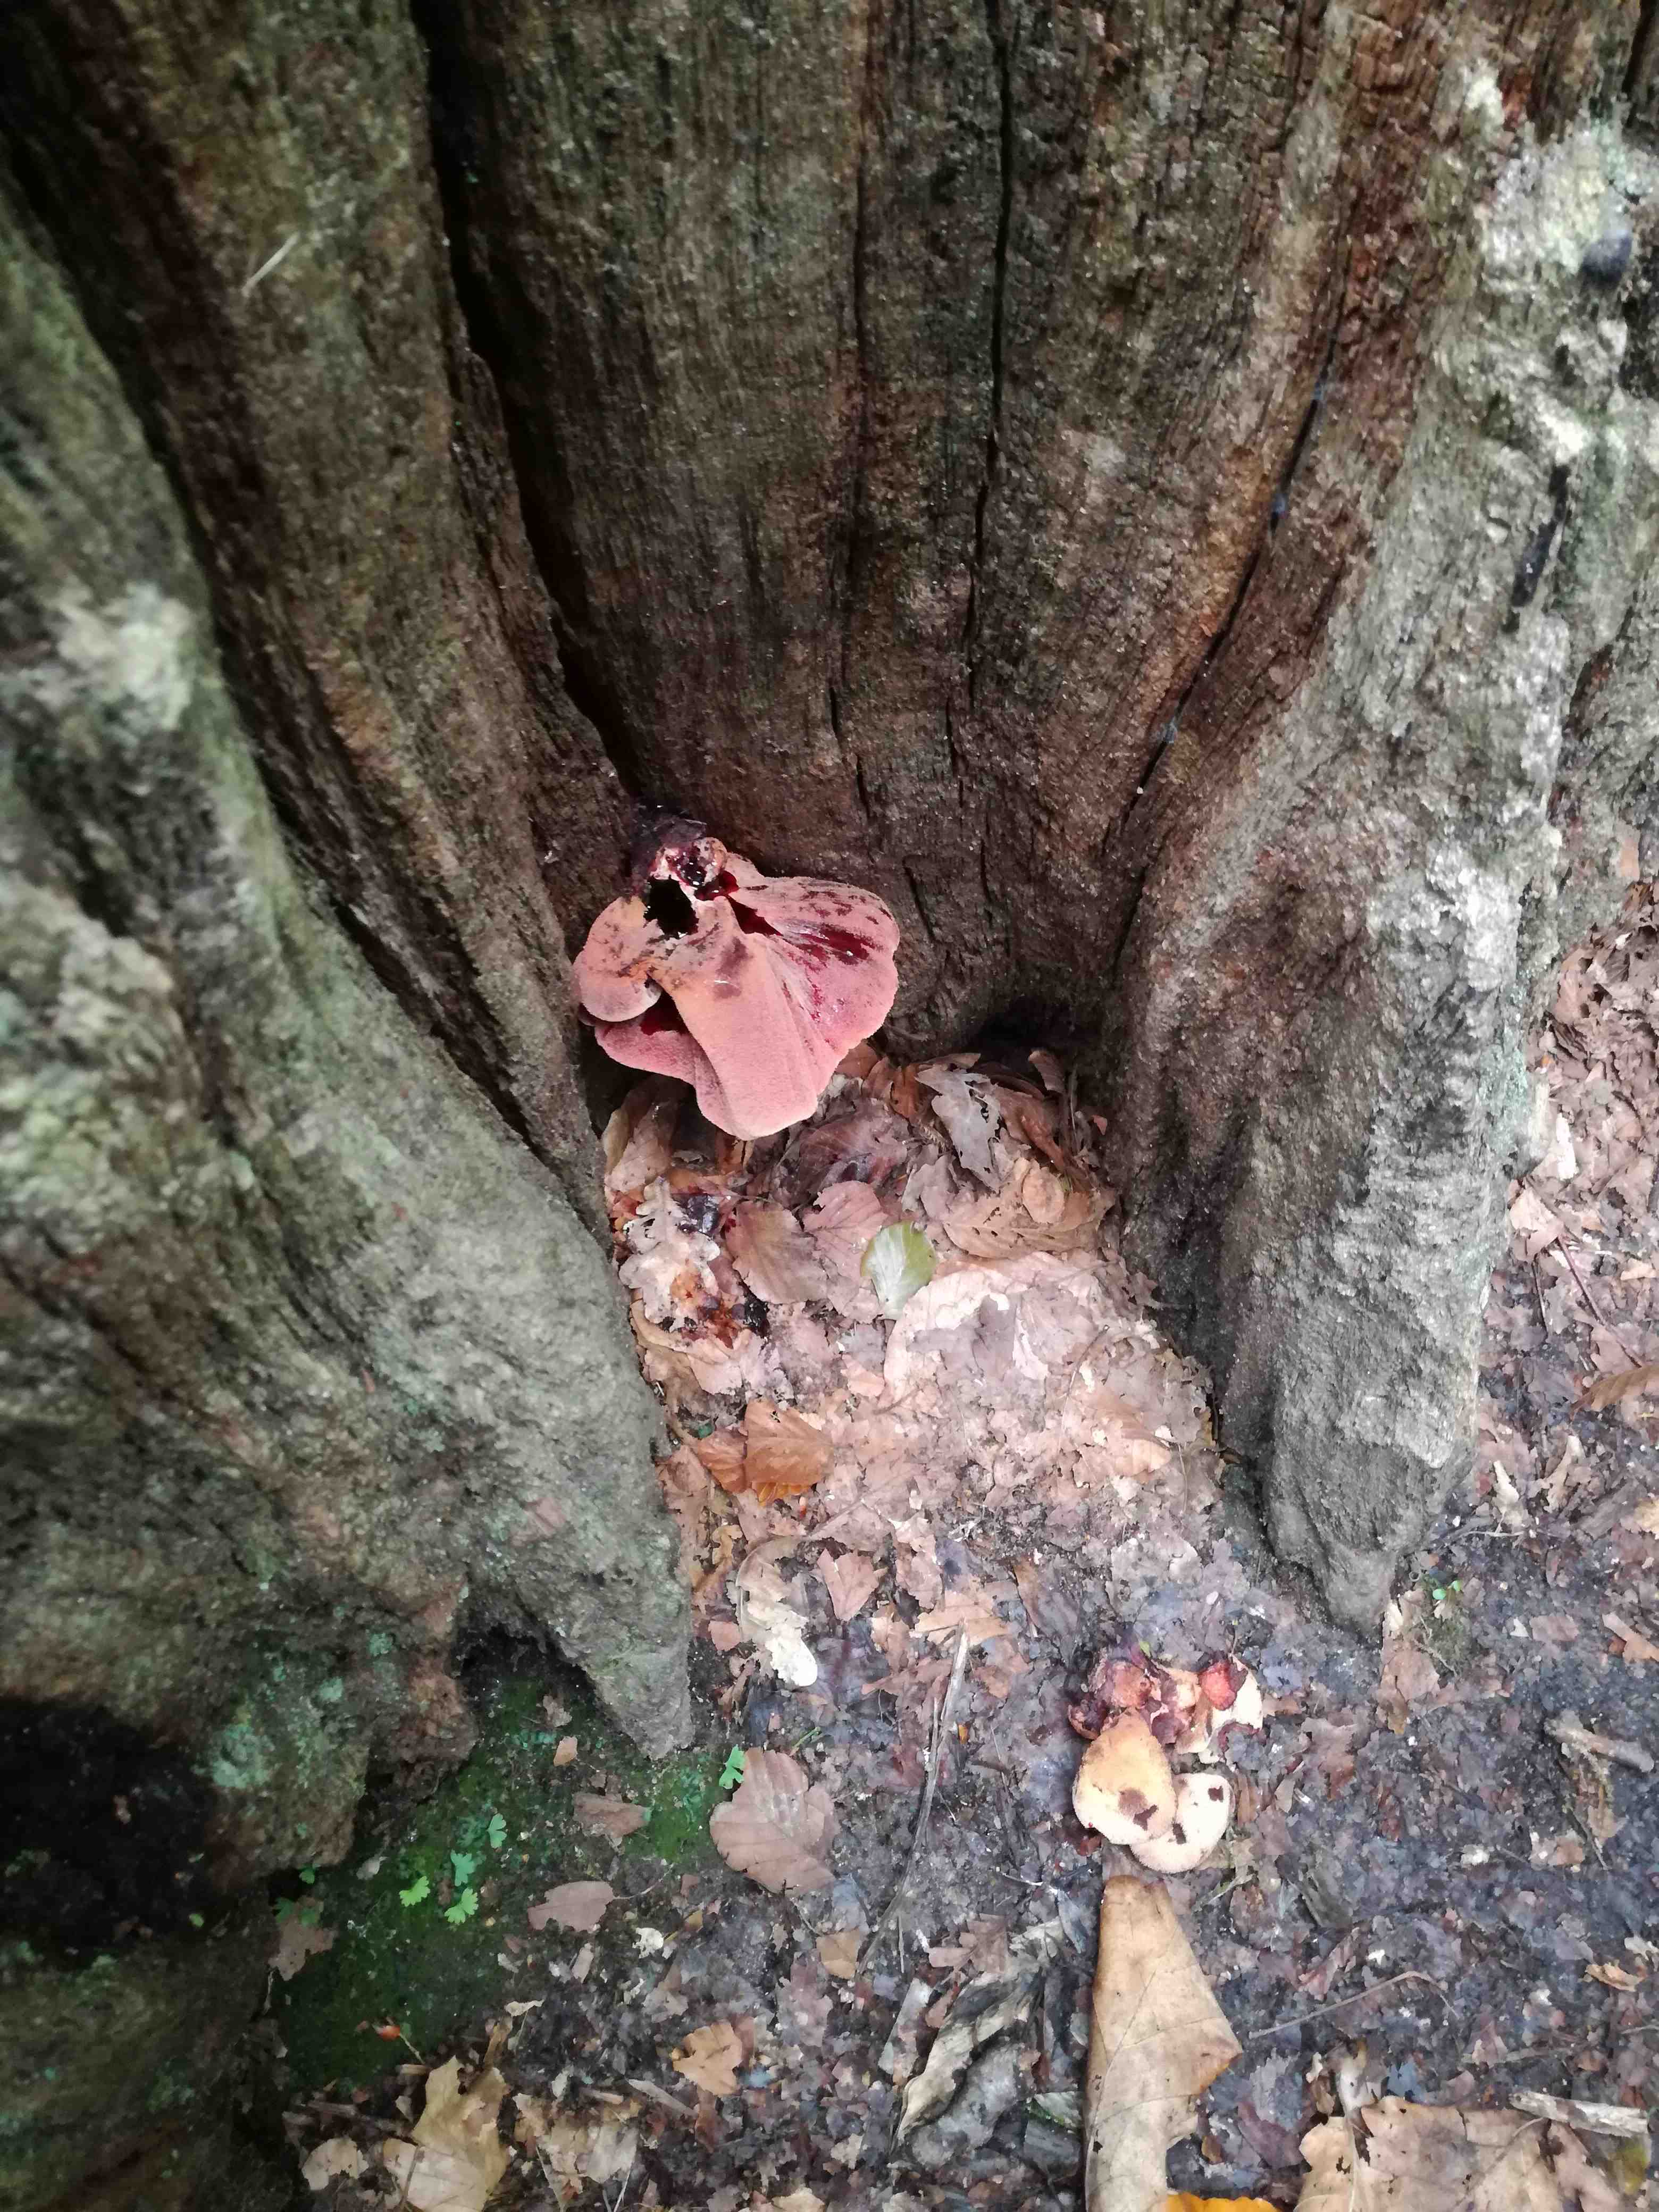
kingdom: Fungi
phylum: Basidiomycota
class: Agaricomycetes
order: Agaricales
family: Fistulinaceae
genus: Fistulina
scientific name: Fistulina hepatica
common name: oksetunge
